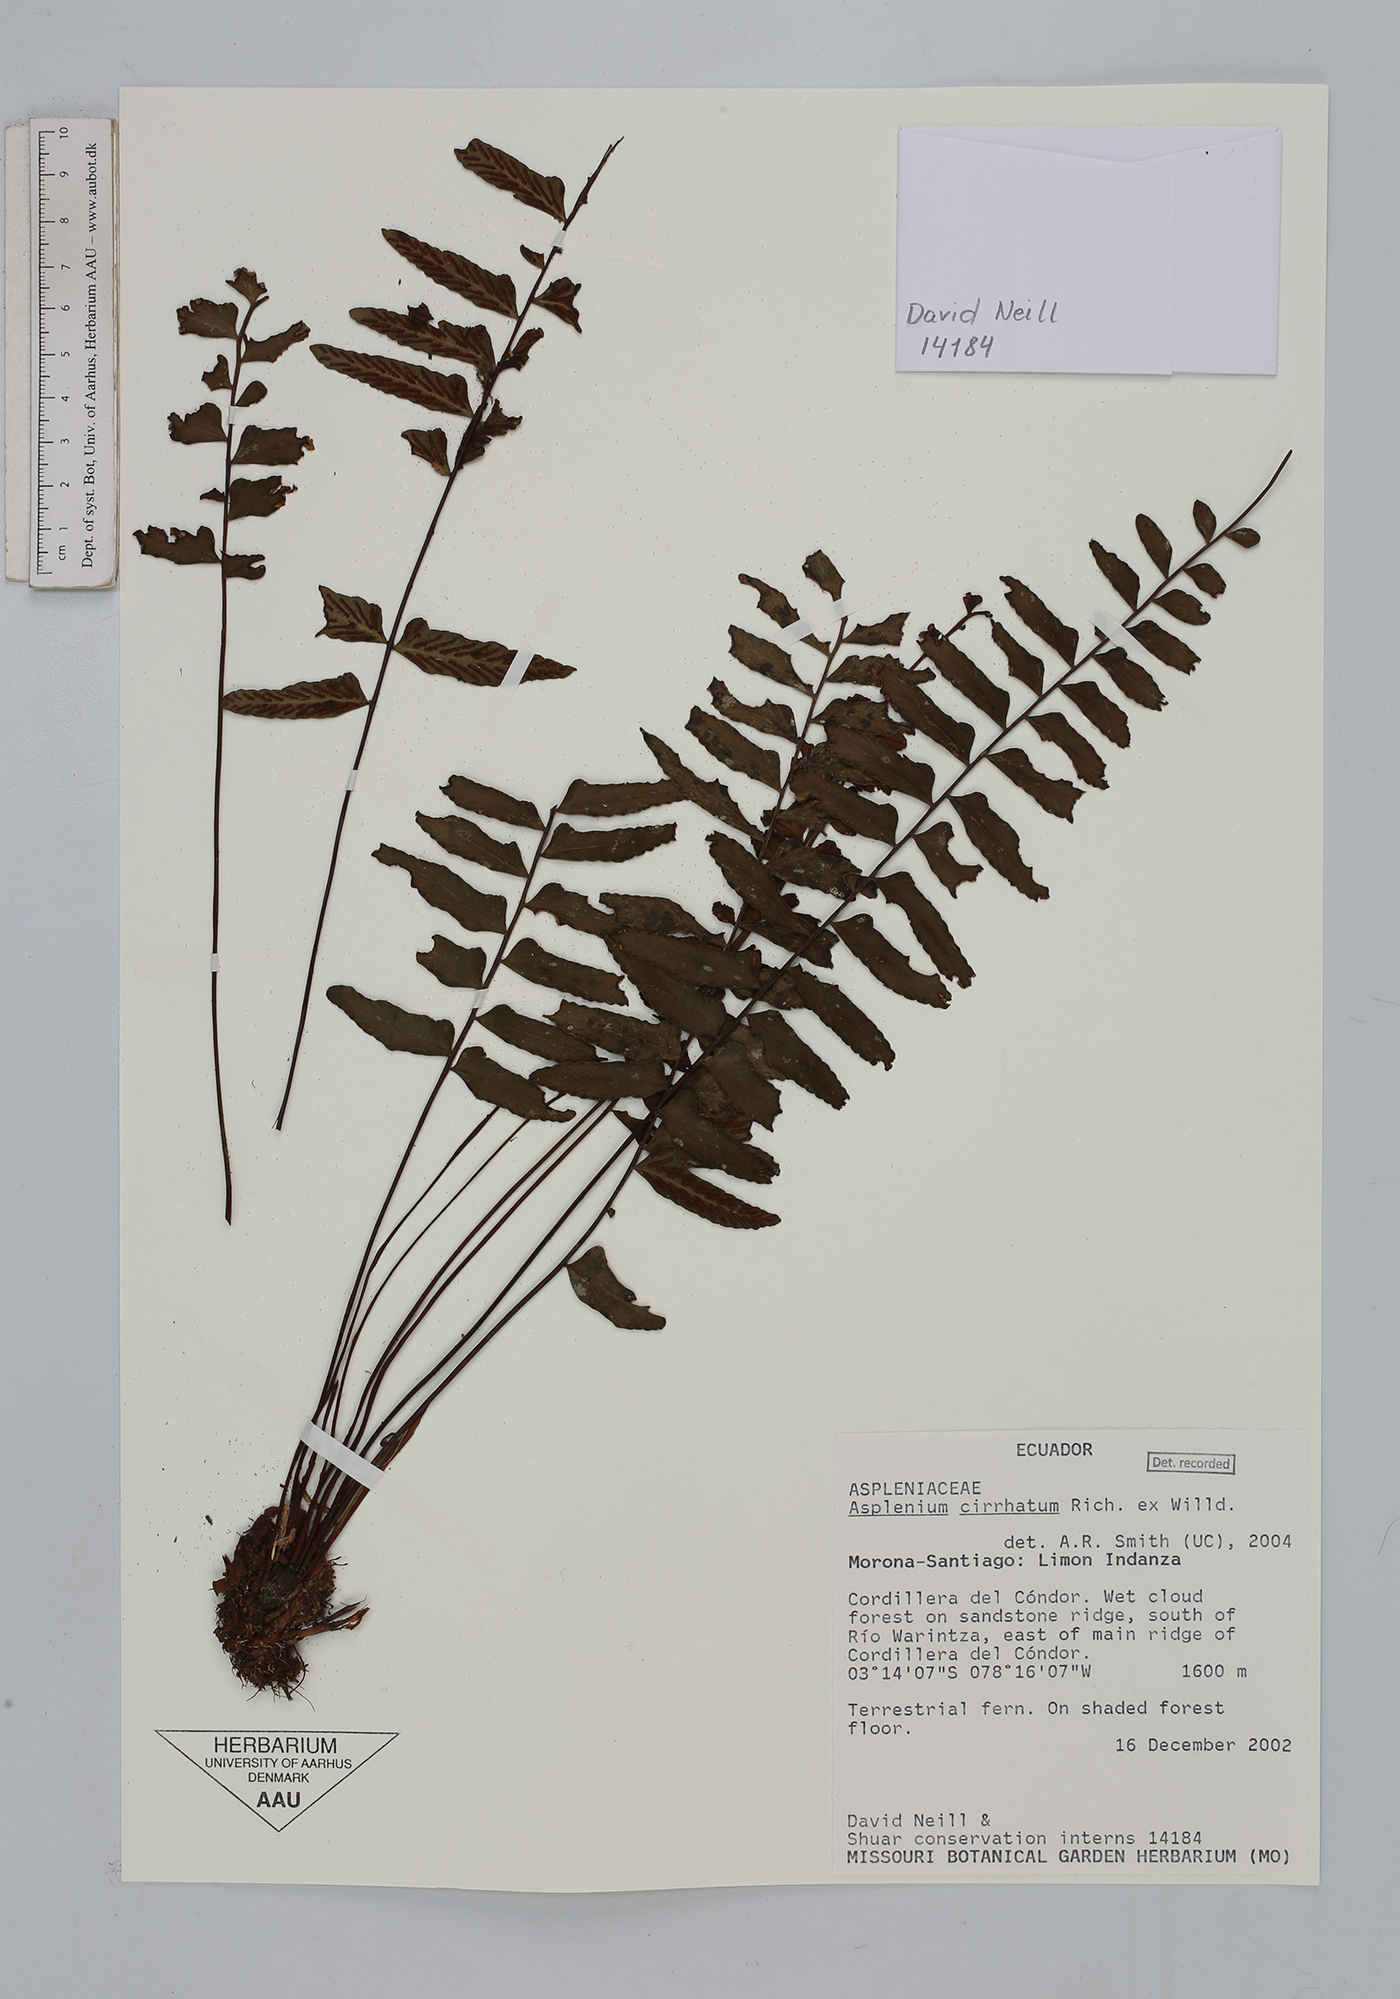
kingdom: Plantae
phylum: Tracheophyta
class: Polypodiopsida
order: Polypodiales
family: Aspleniaceae
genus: Asplenium
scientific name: Asplenium cirrhatum
